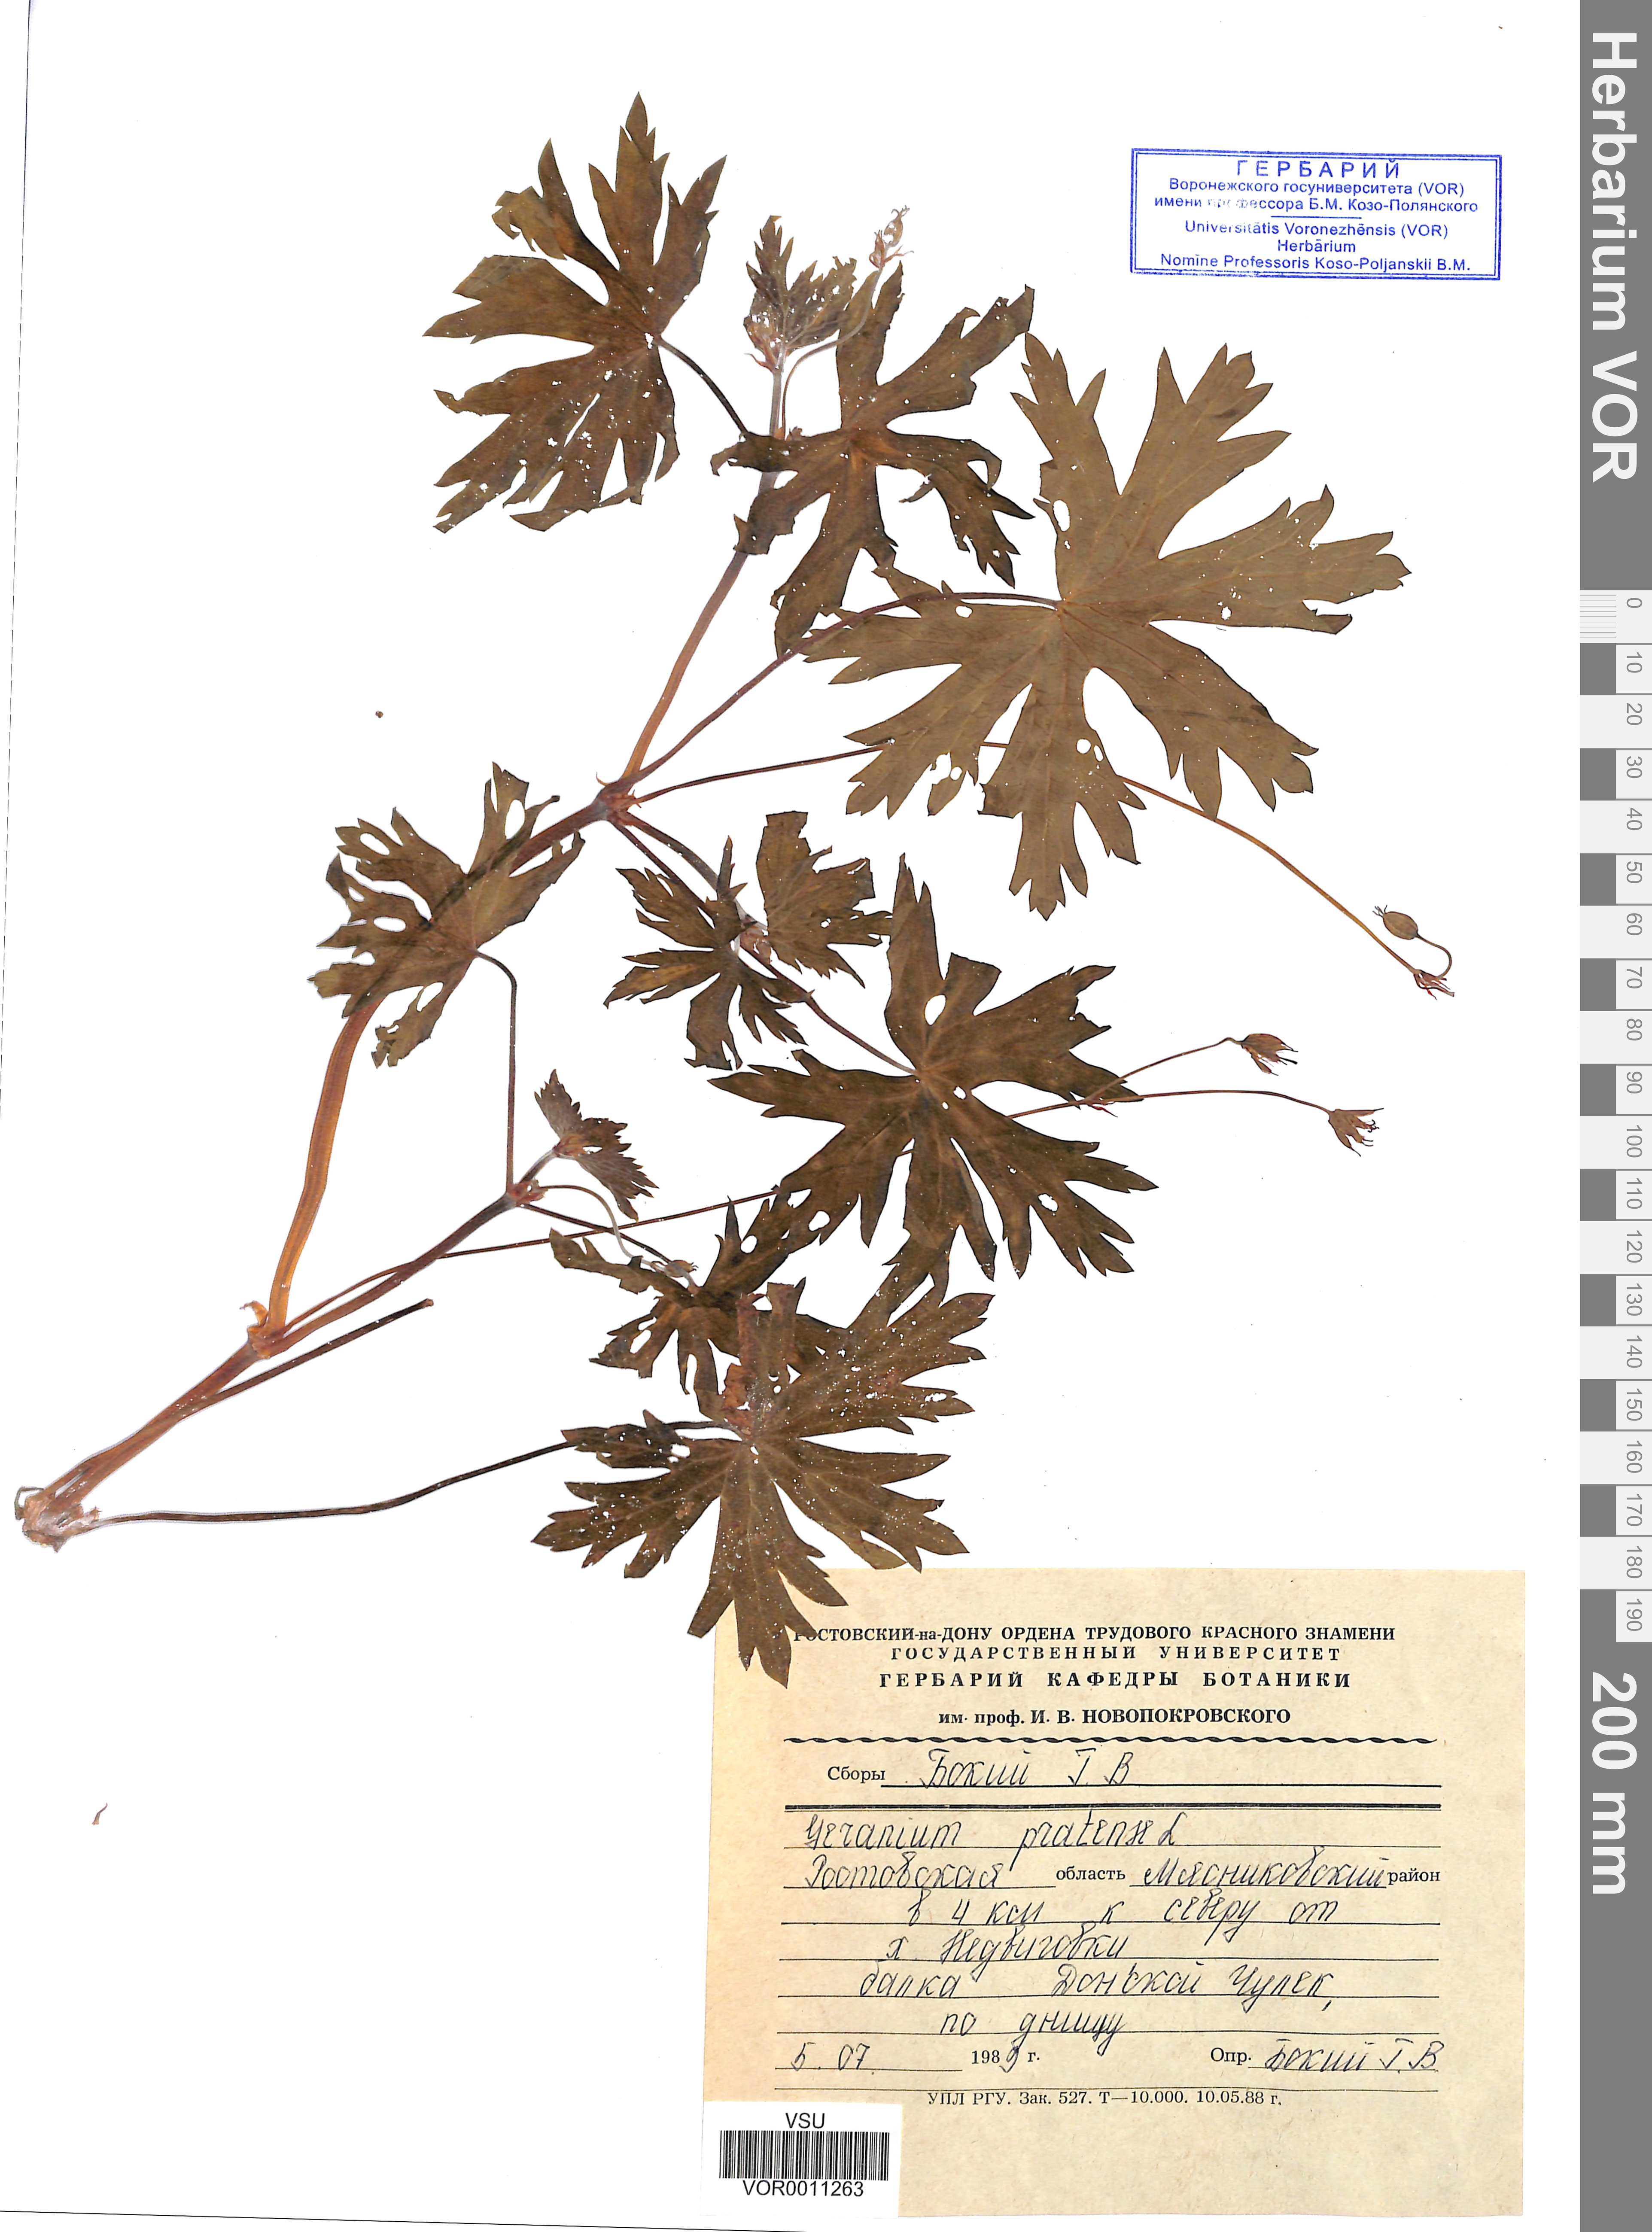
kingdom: Plantae
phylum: Tracheophyta
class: Magnoliopsida
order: Geraniales
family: Geraniaceae
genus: Geranium
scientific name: Geranium pratense
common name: Meadow crane's-bill
